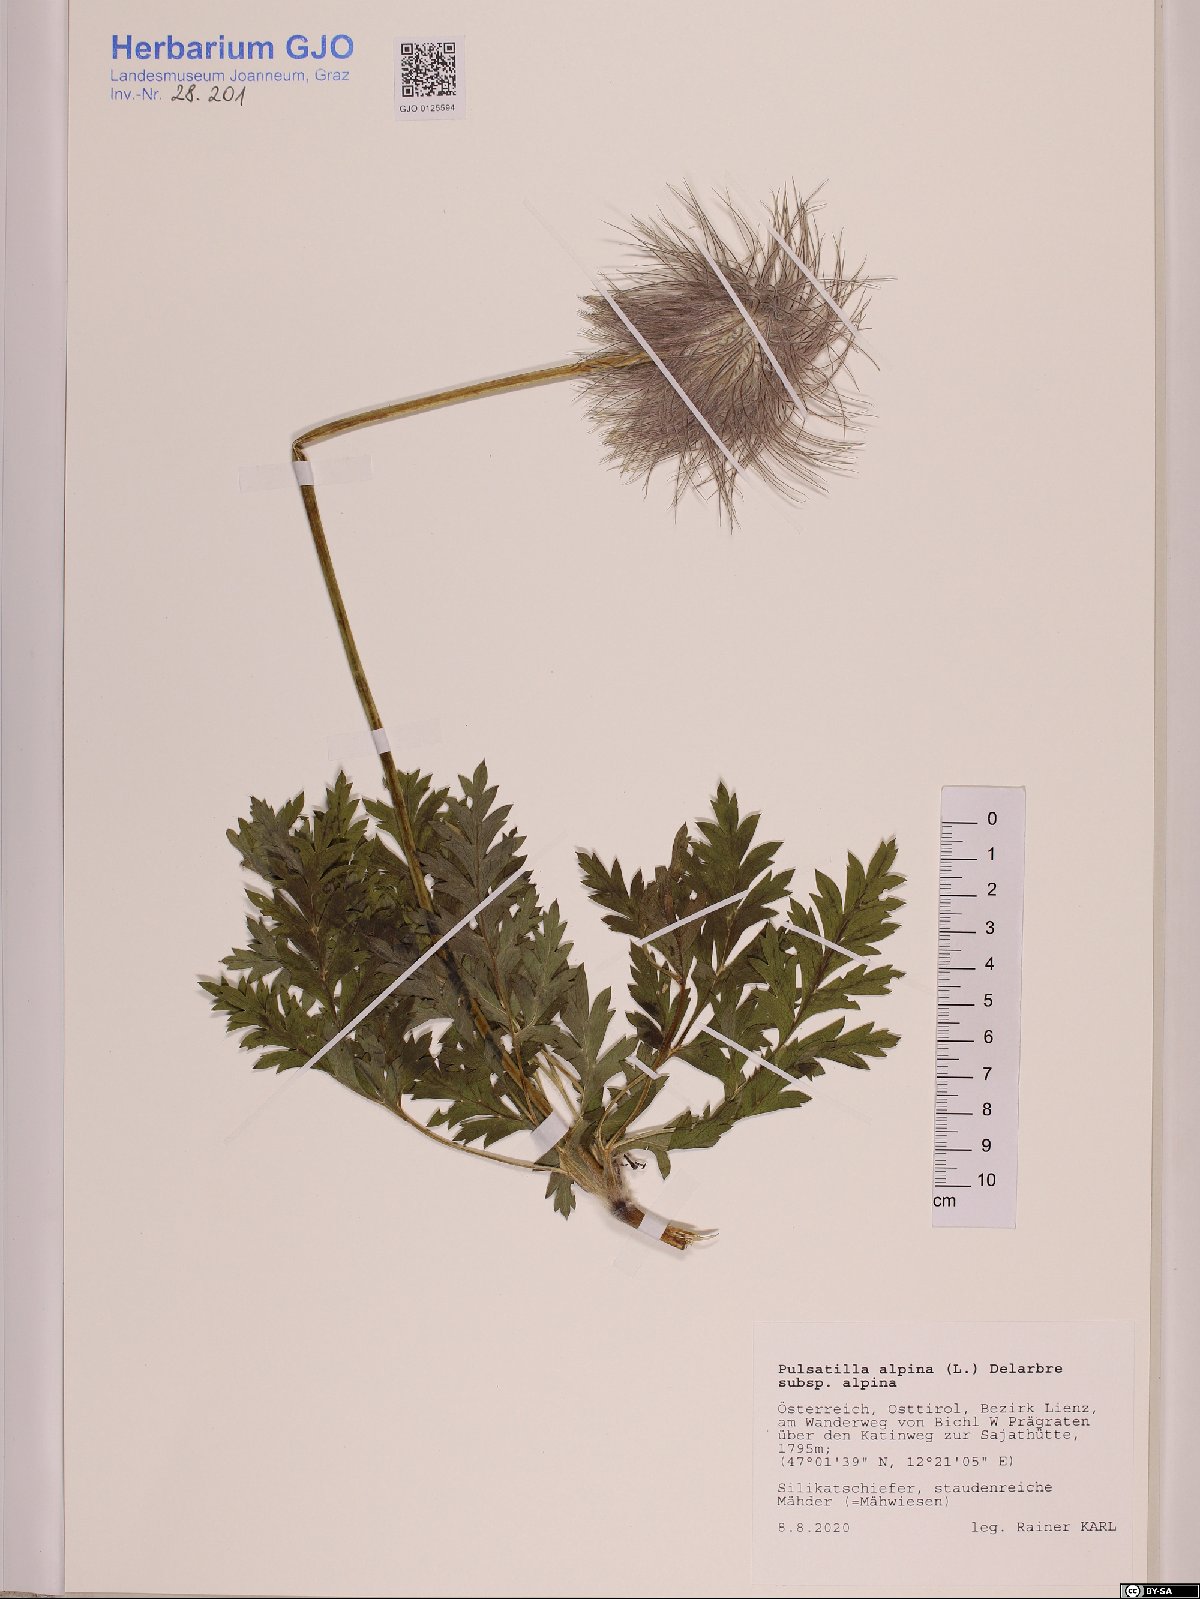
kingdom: Plantae
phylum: Tracheophyta
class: Magnoliopsida
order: Ranunculales
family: Ranunculaceae
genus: Pulsatilla
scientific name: Pulsatilla alpina
